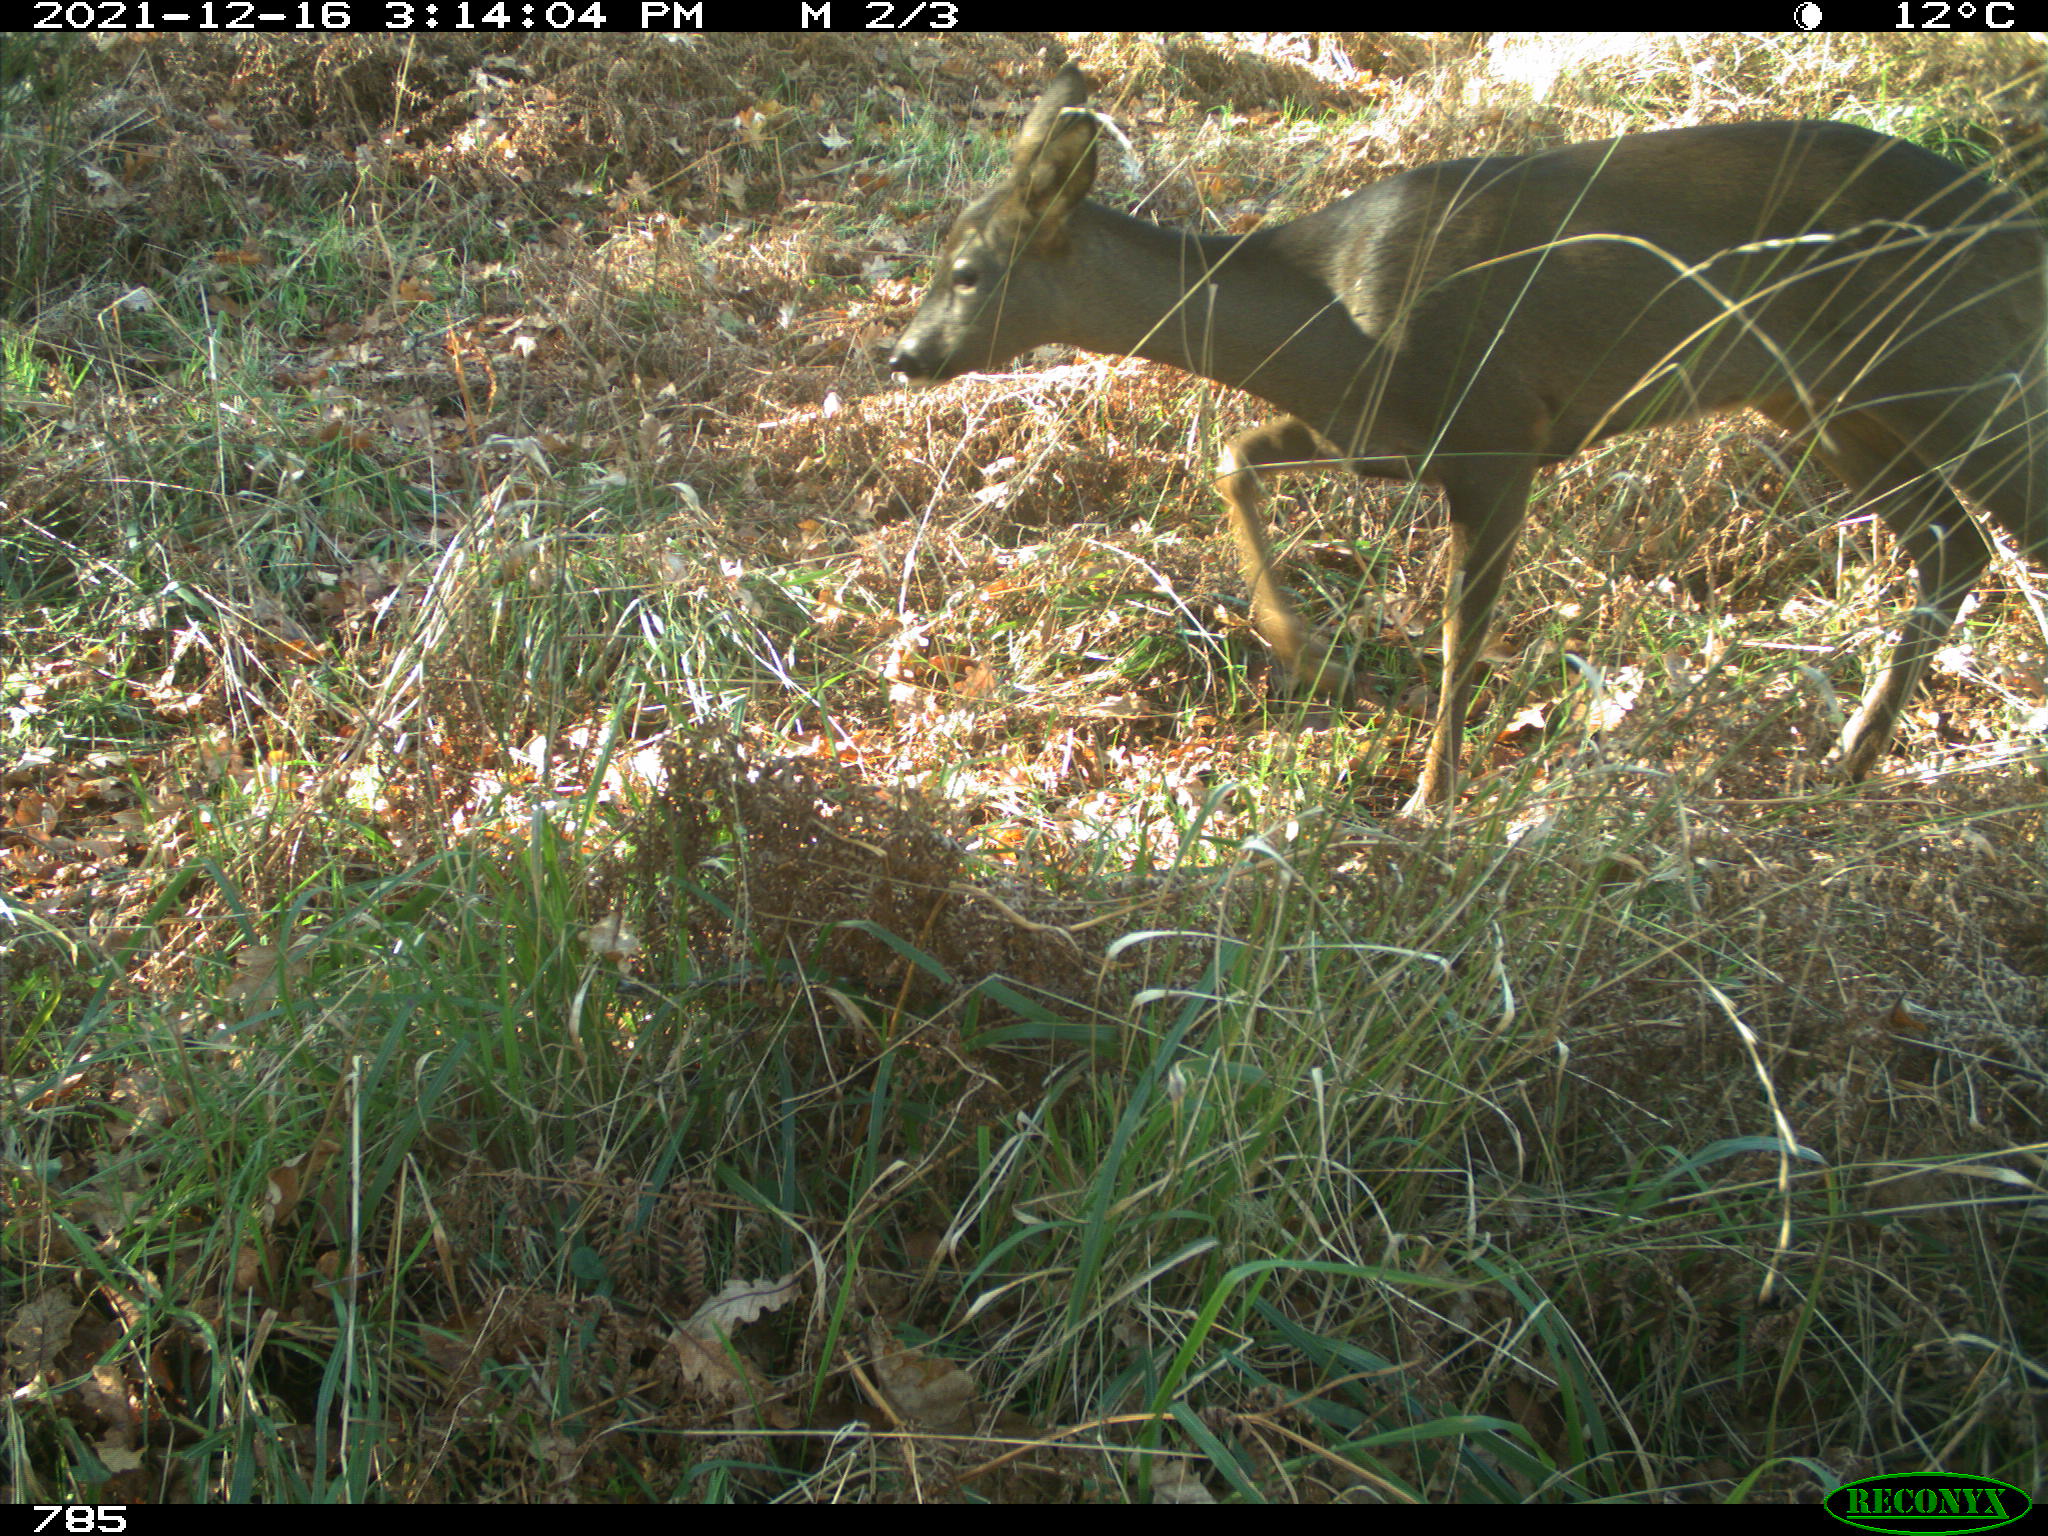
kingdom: Animalia
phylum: Chordata
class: Mammalia
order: Artiodactyla
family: Cervidae
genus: Capreolus
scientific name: Capreolus capreolus
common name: Western roe deer
